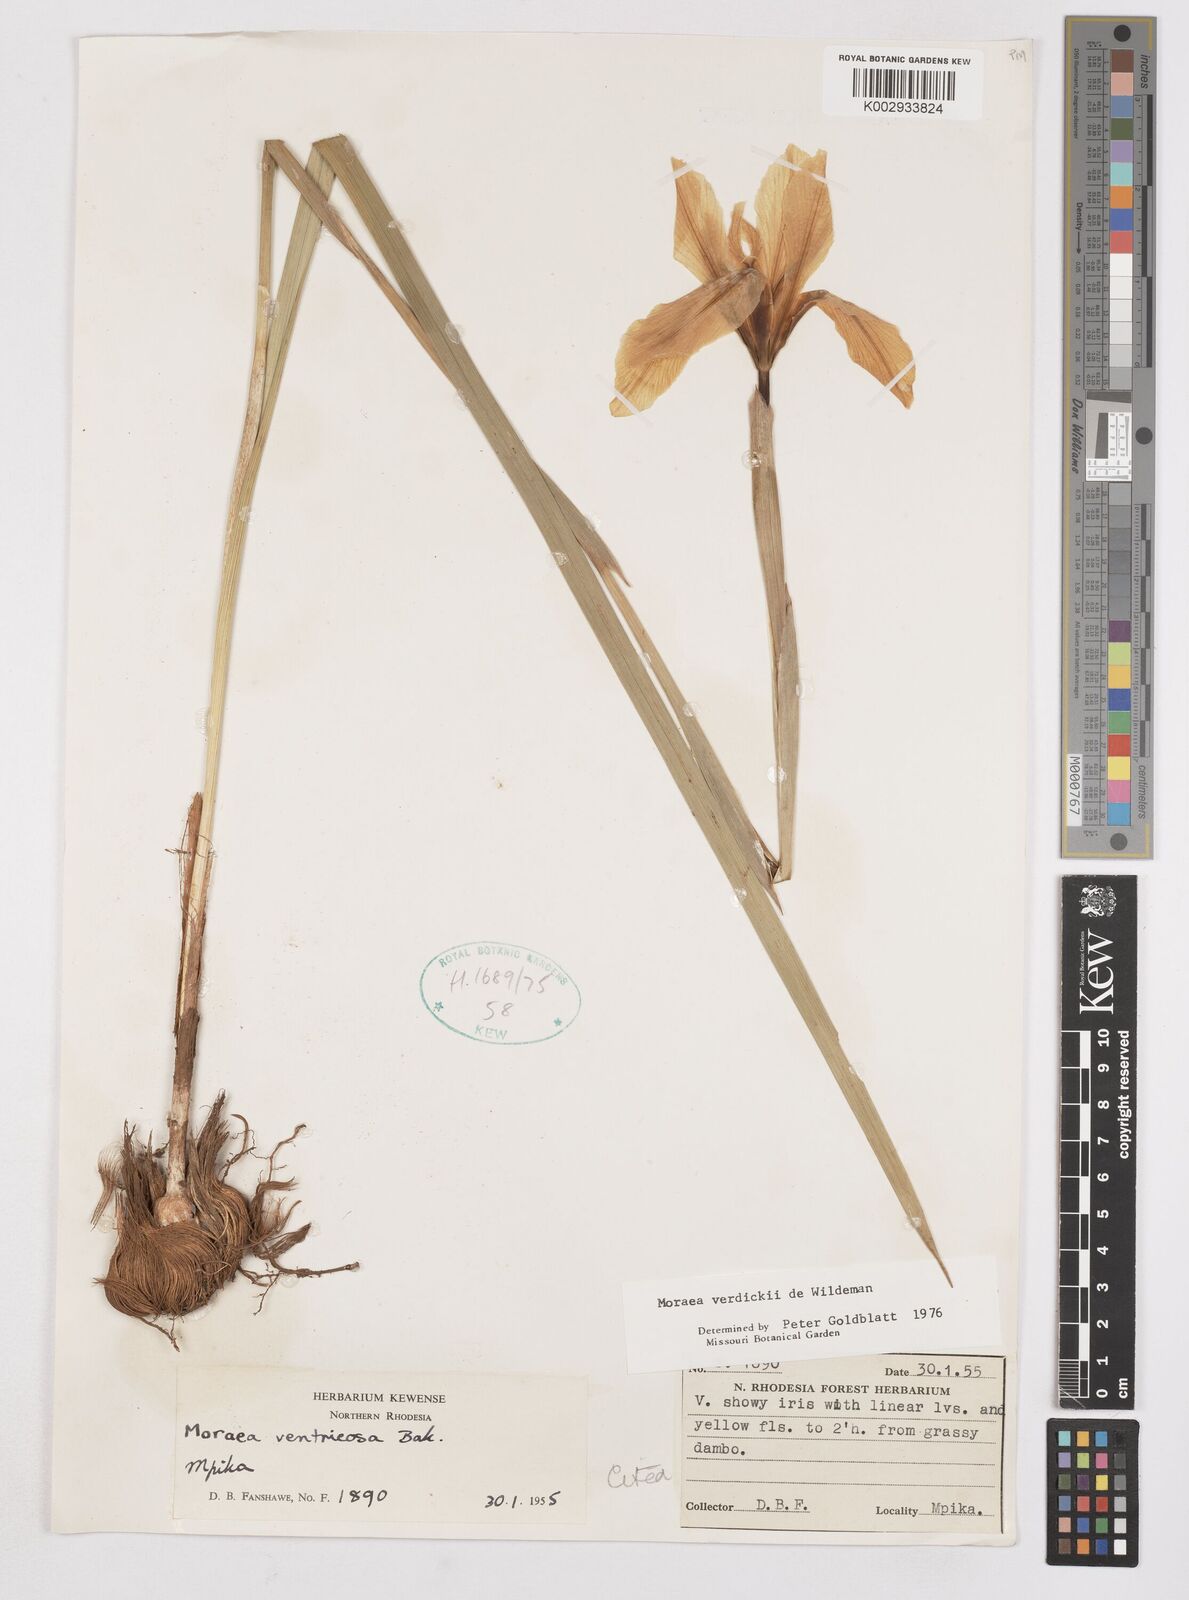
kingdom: Plantae
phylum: Tracheophyta
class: Liliopsida
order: Asparagales
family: Iridaceae
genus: Moraea
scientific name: Moraea verdickii
